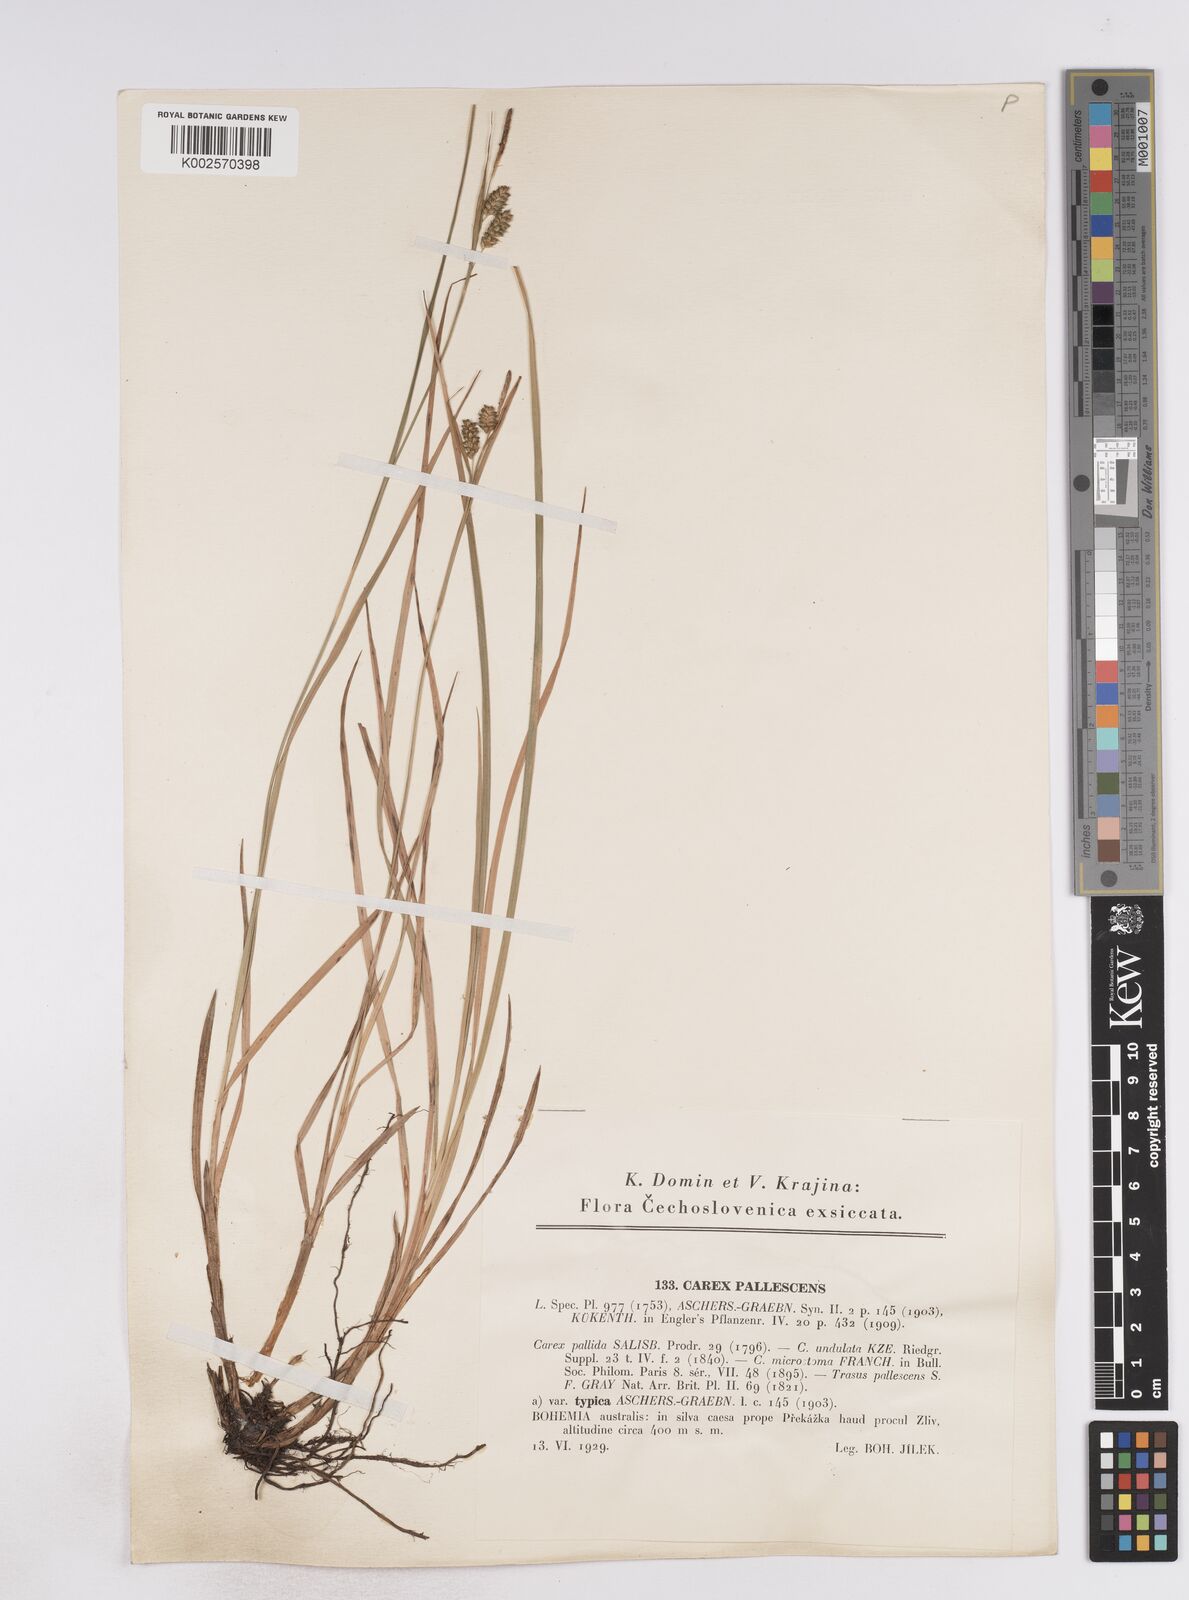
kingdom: Plantae
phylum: Tracheophyta
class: Liliopsida
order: Poales
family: Cyperaceae
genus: Carex
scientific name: Carex pallescens
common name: Pale sedge
